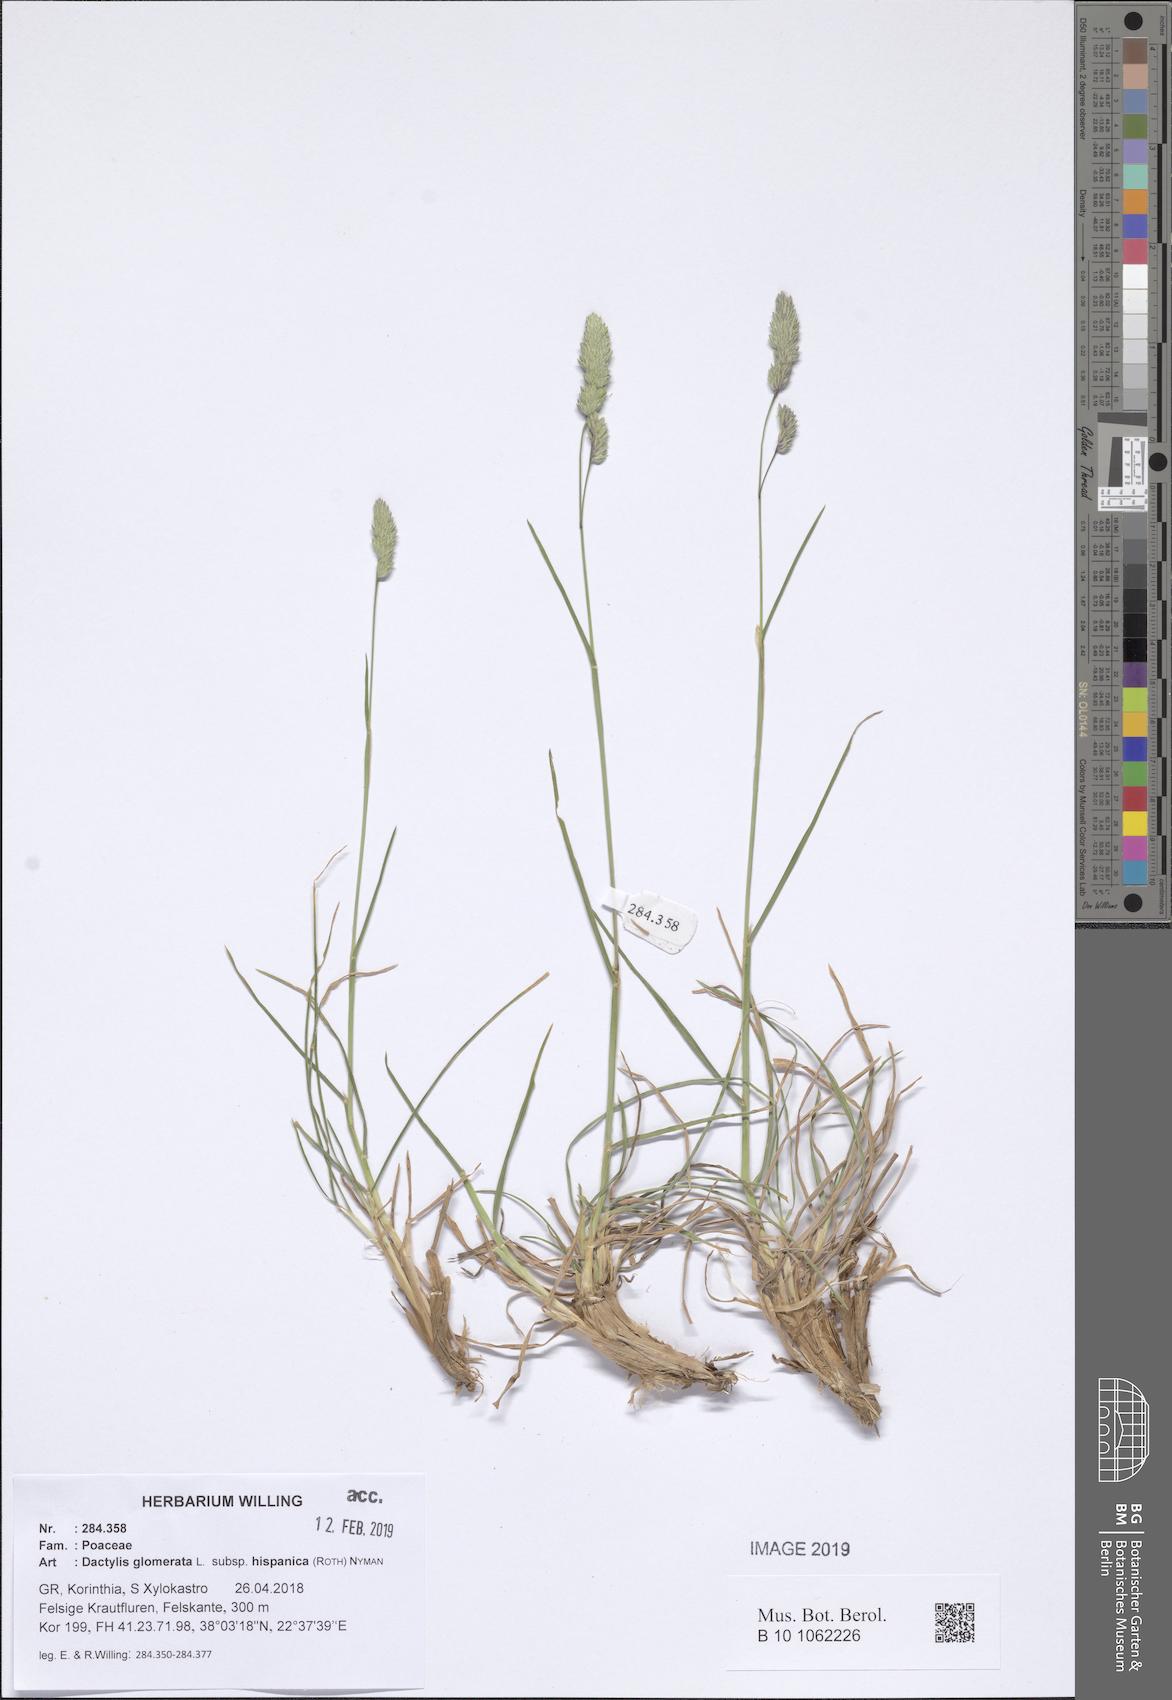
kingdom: Plantae
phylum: Tracheophyta
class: Liliopsida
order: Poales
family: Poaceae
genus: Dactylis
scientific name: Dactylis glomerata
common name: Orchardgrass
